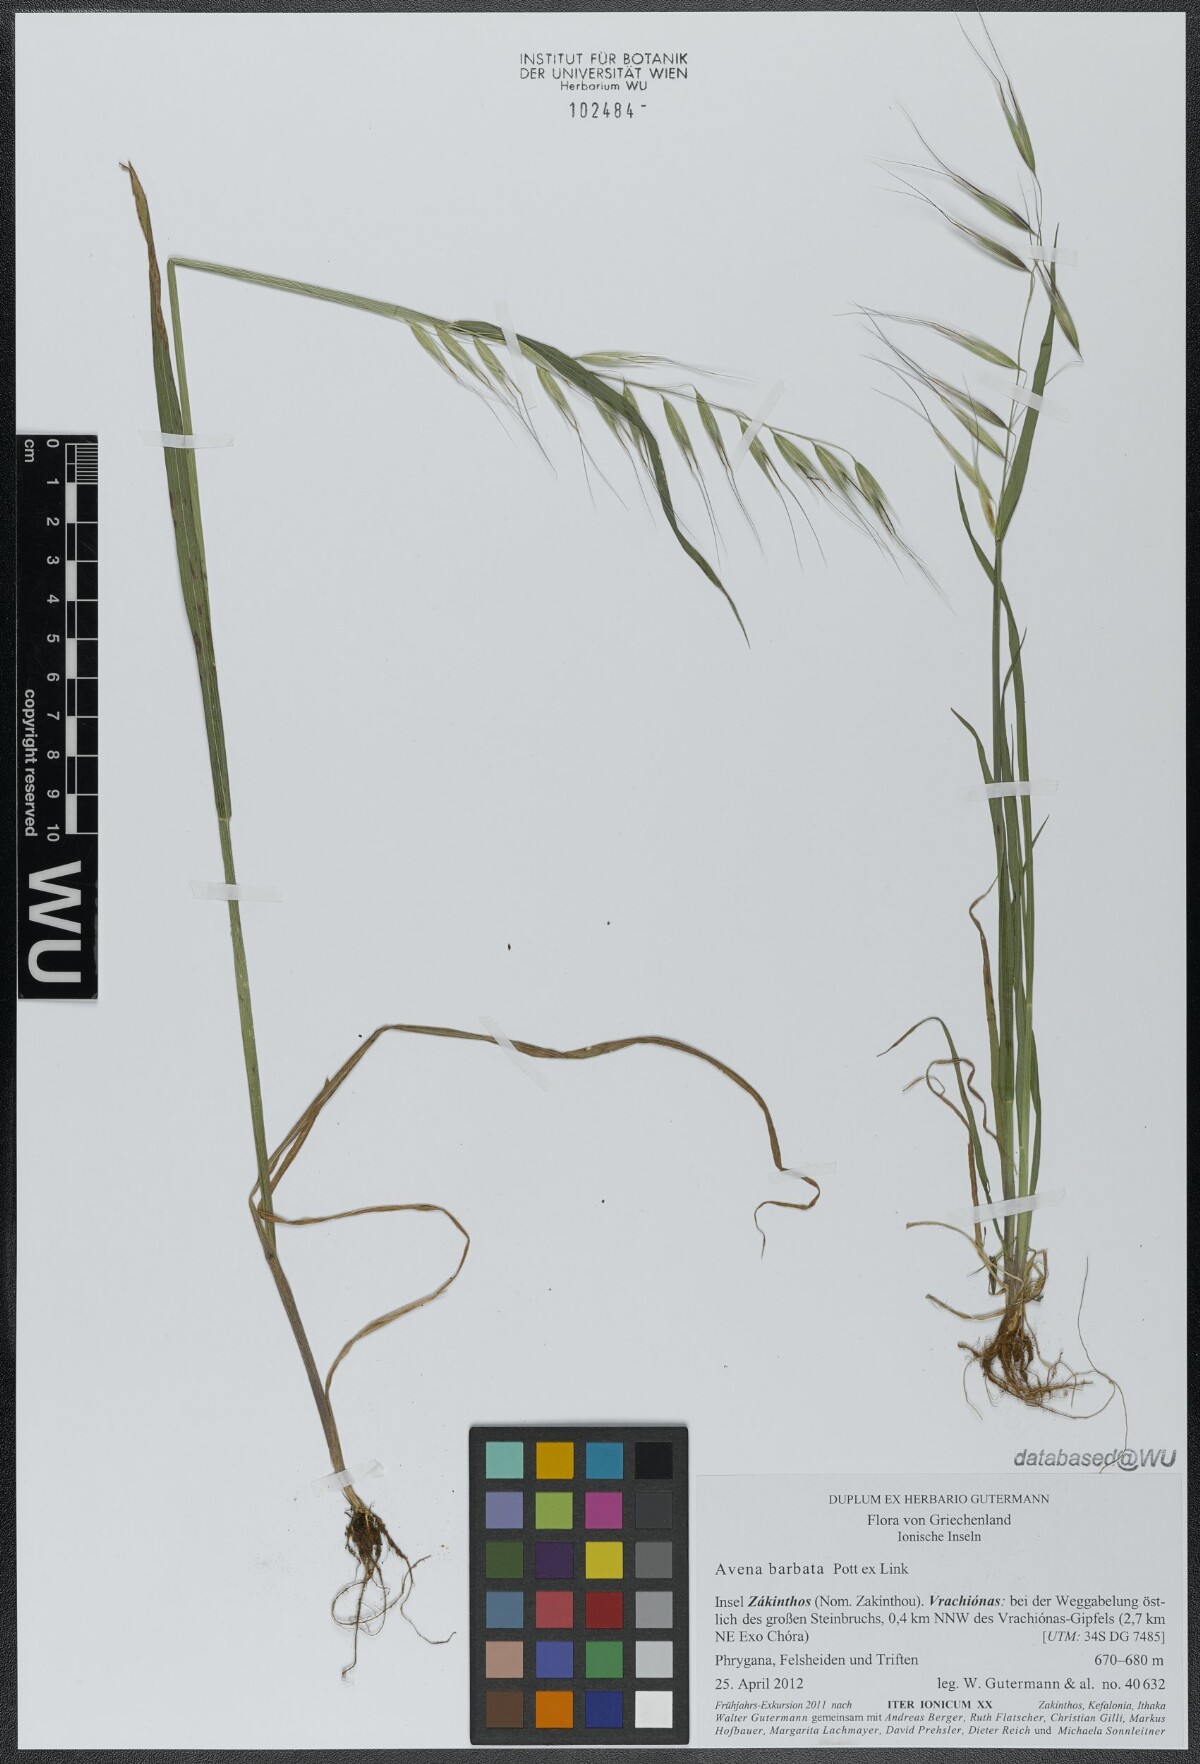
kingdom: Plantae
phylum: Tracheophyta
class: Liliopsida
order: Poales
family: Poaceae
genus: Avena
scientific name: Avena barbata
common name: Slender oat
